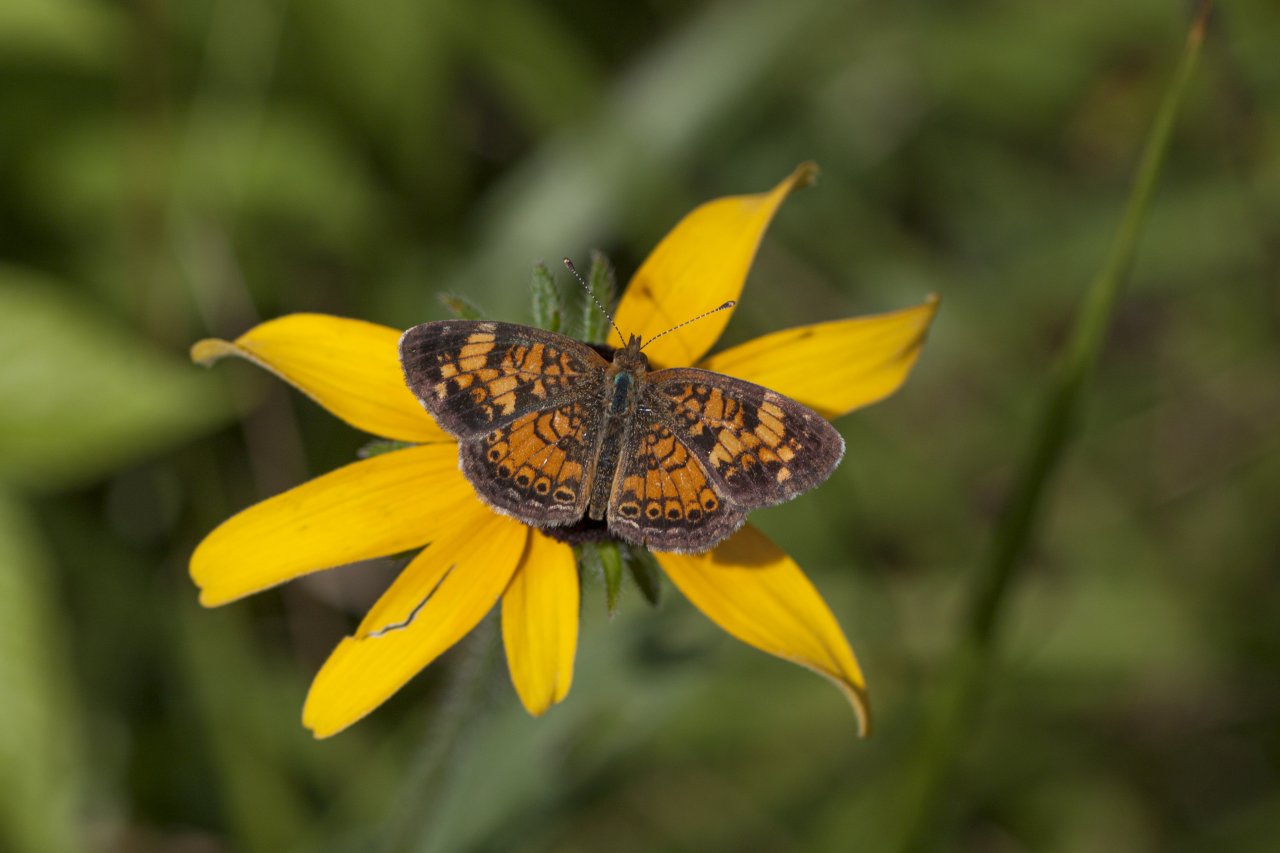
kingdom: Animalia
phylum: Arthropoda
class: Insecta
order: Lepidoptera
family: Nymphalidae
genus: Phyciodes
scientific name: Phyciodes
